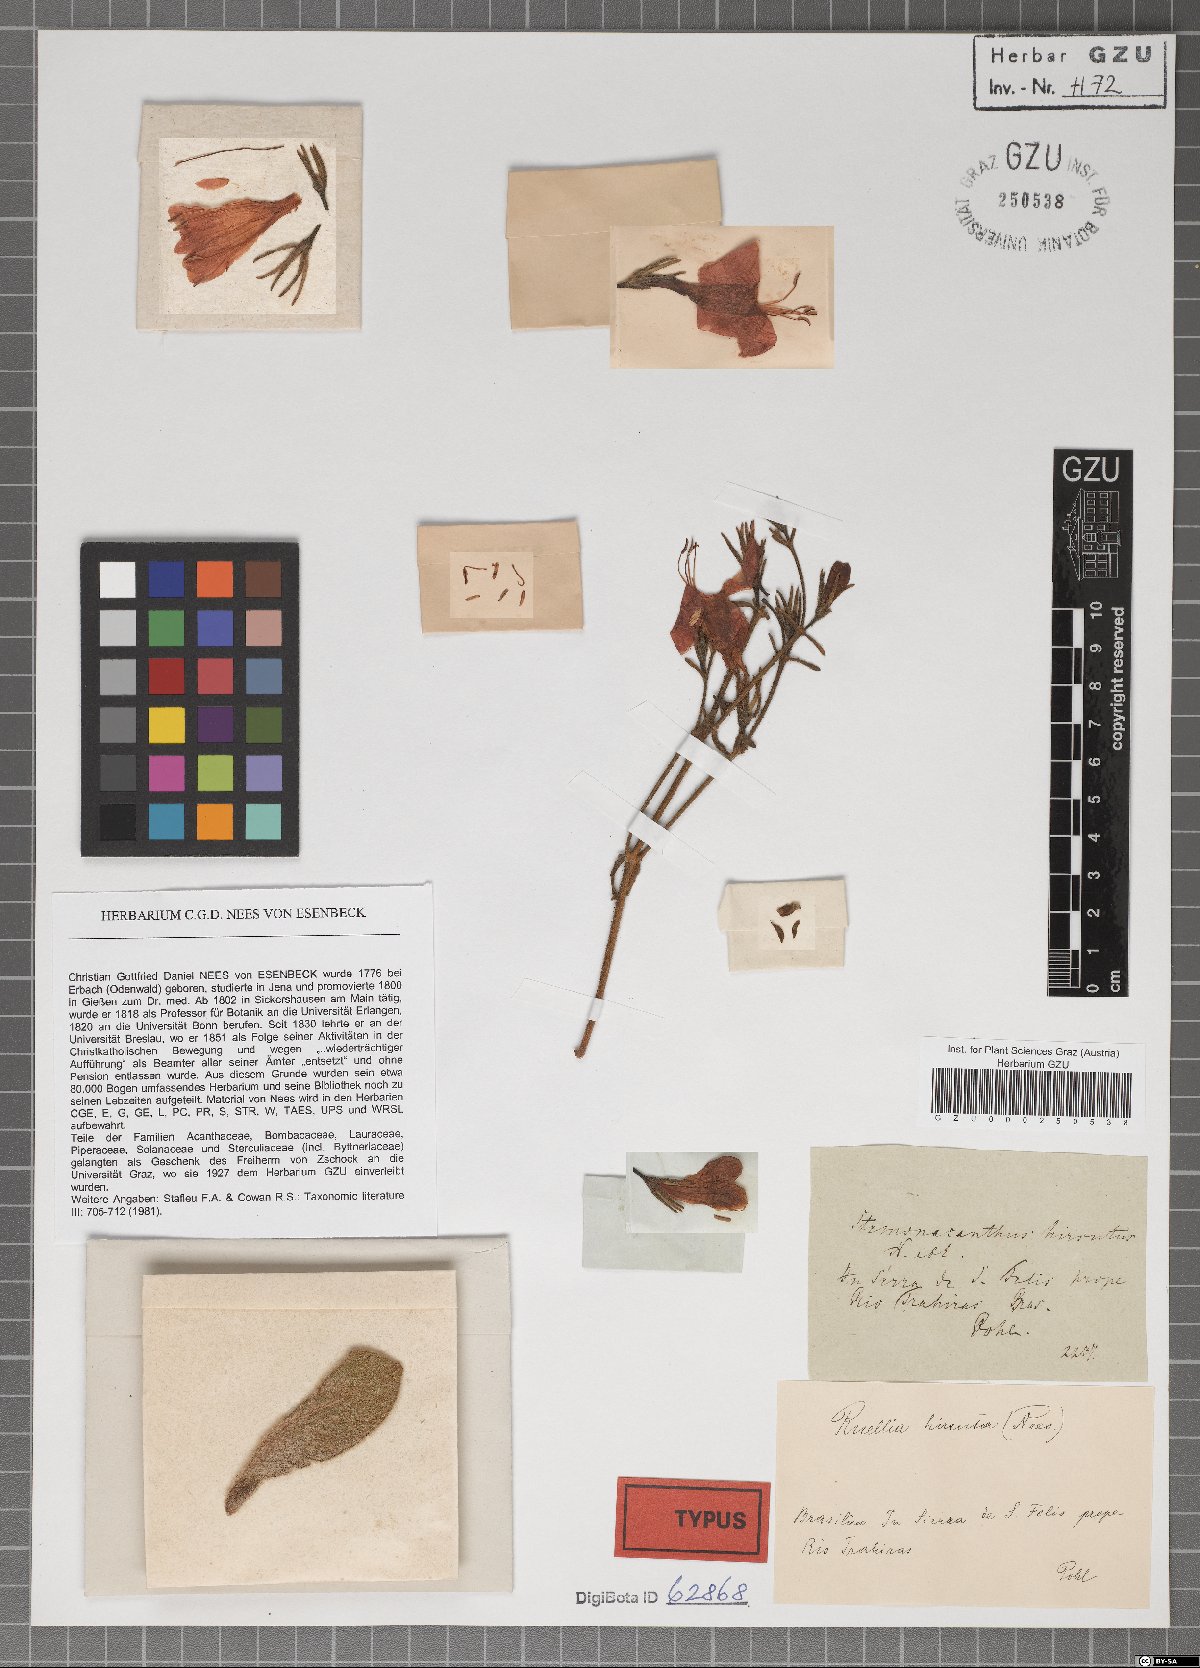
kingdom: Plantae
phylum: Tracheophyta
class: Magnoliopsida
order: Lamiales
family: Acanthaceae
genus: Ruellia
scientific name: Ruellia Stemonacanthus hirsutus
